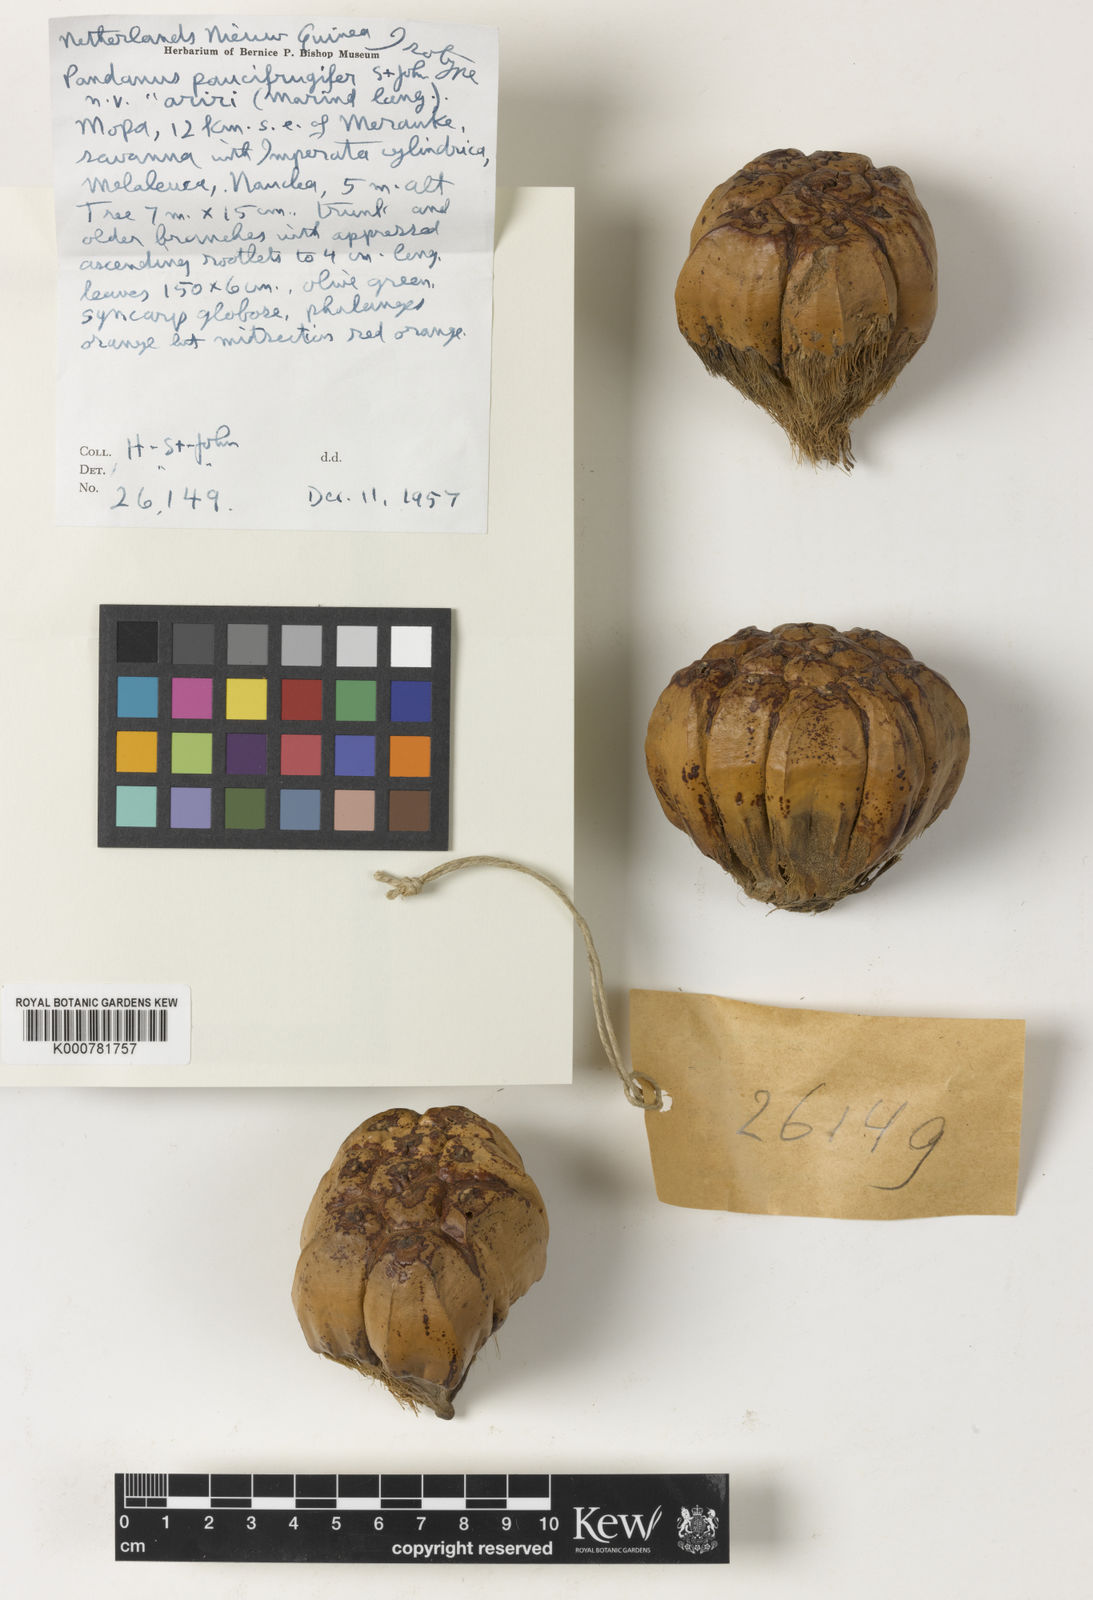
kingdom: Plantae
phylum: Tracheophyta
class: Liliopsida
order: Pandanales
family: Pandanaceae
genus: Pandanus
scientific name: Pandanus
